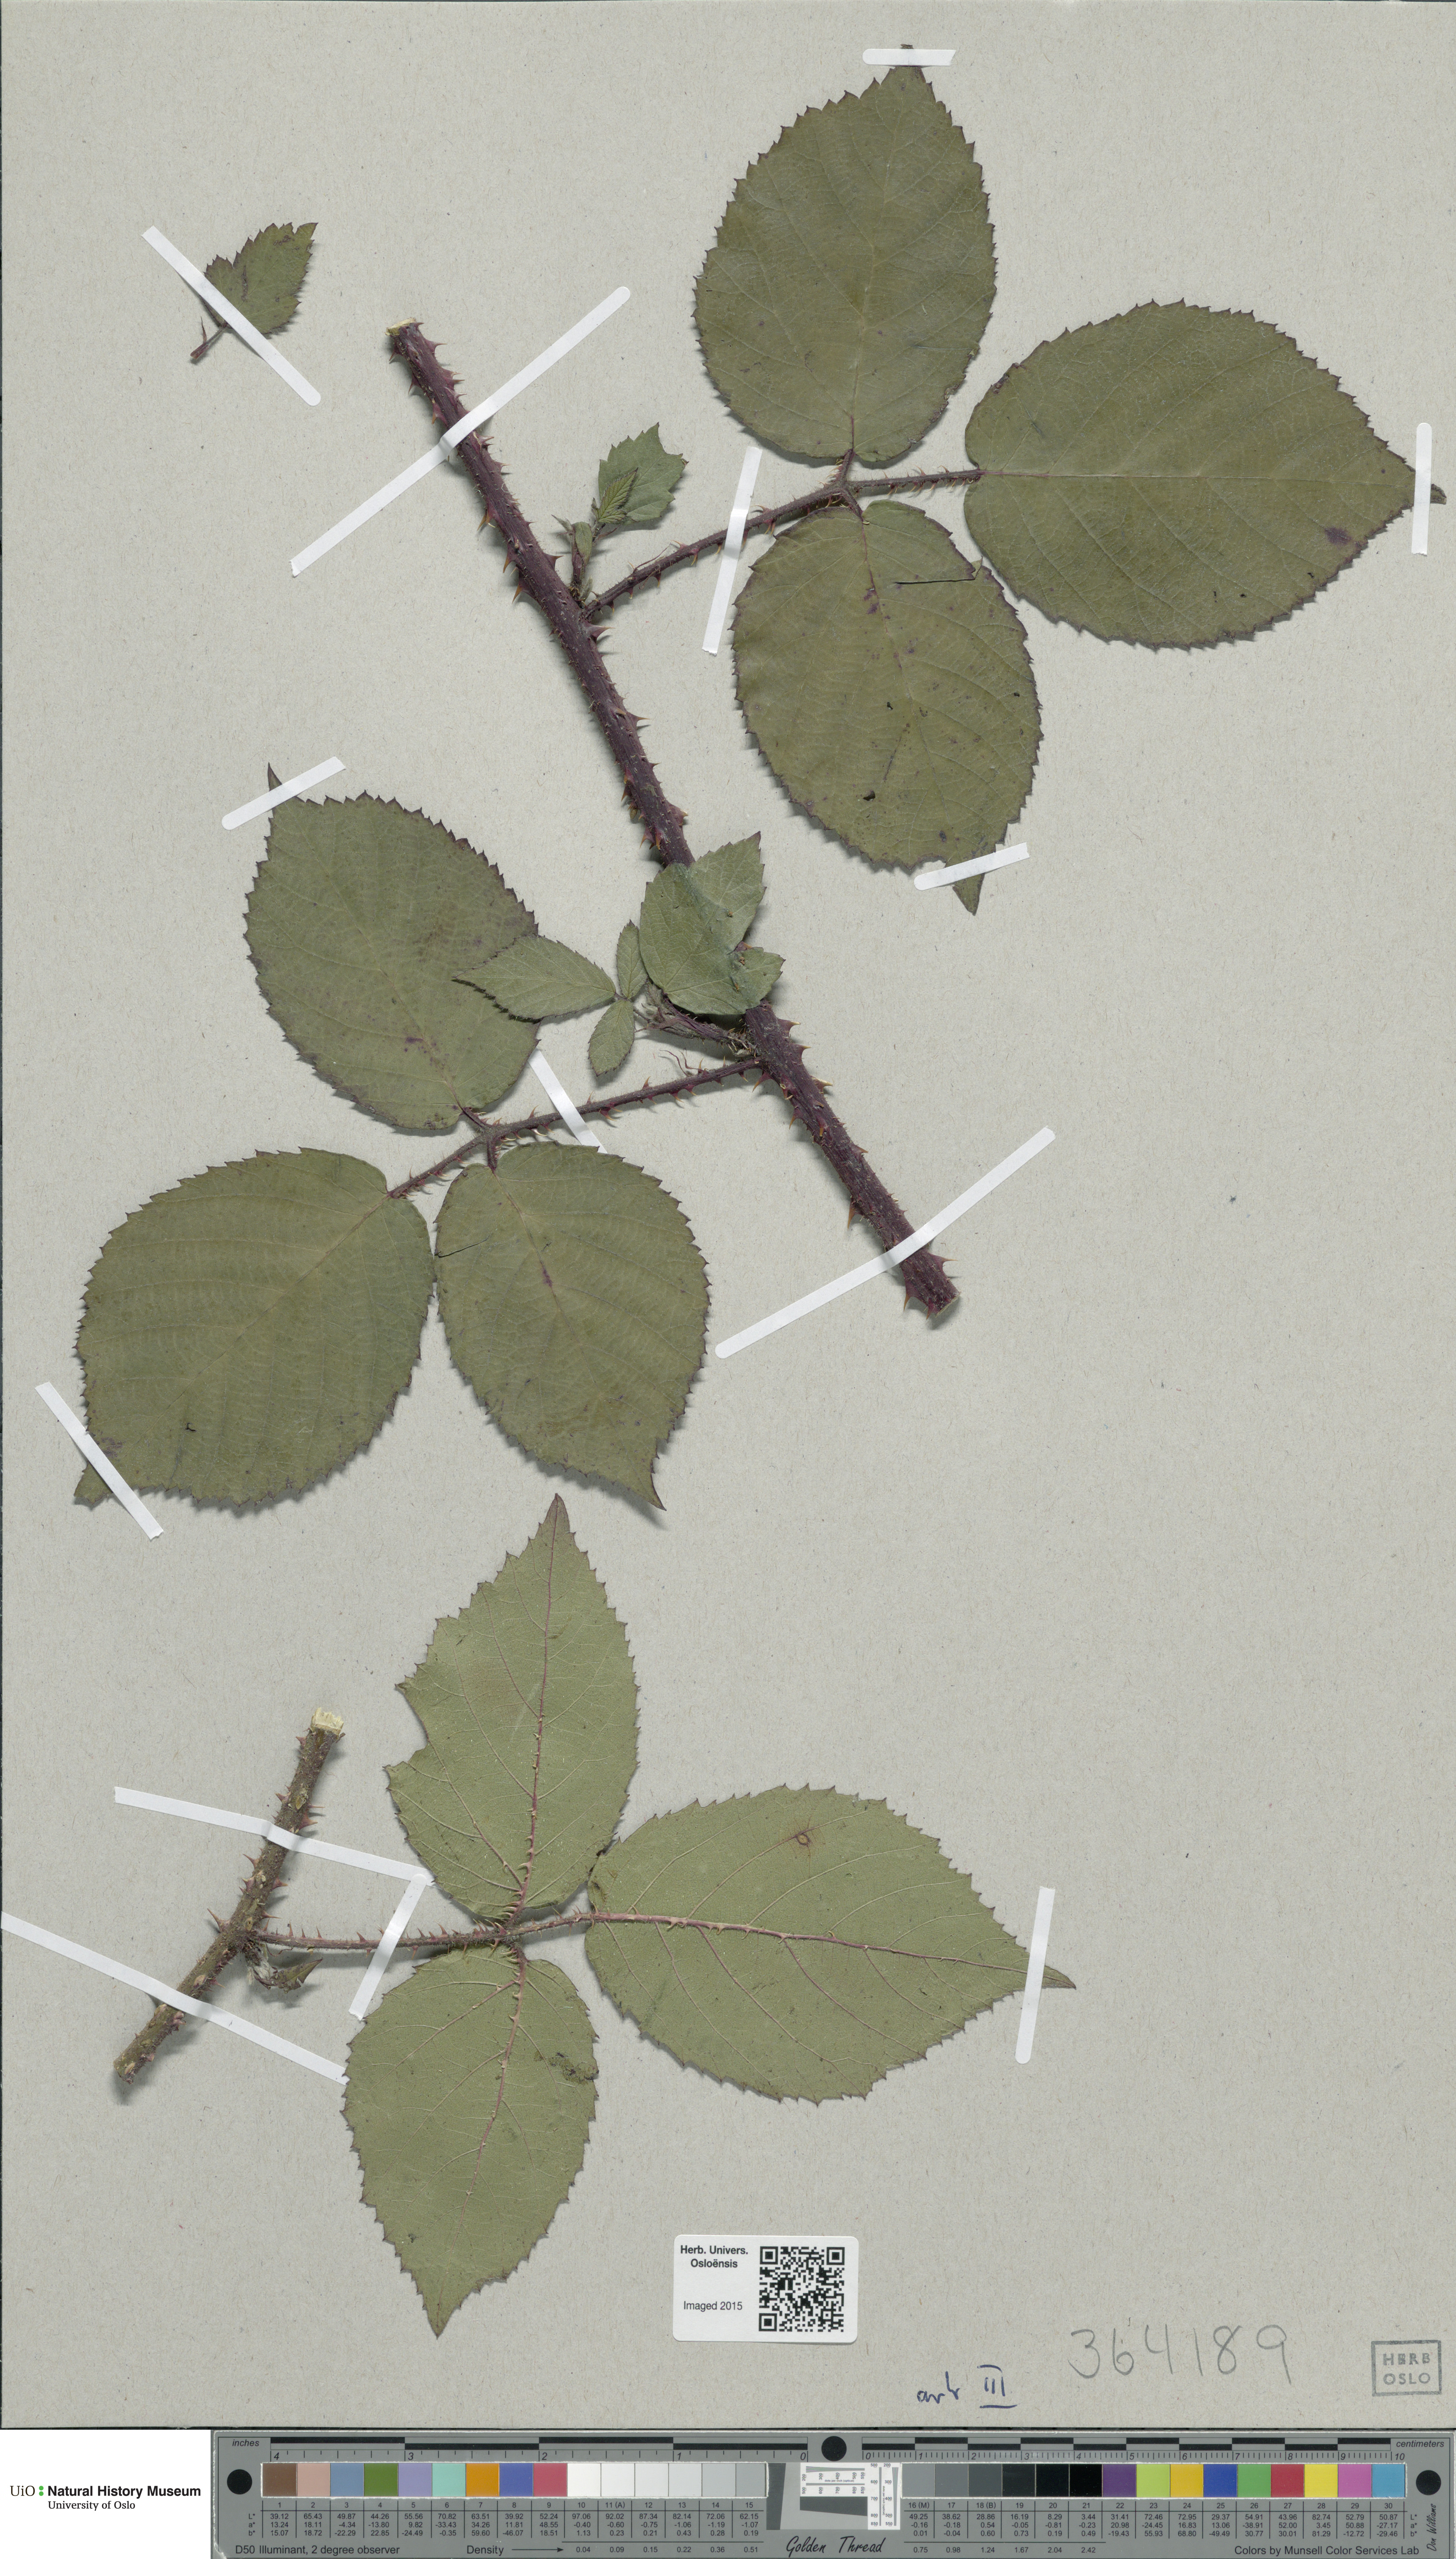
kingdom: Plantae
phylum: Tracheophyta
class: Magnoliopsida
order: Rosales
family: Rosaceae
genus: Rubus
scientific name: Rubus
